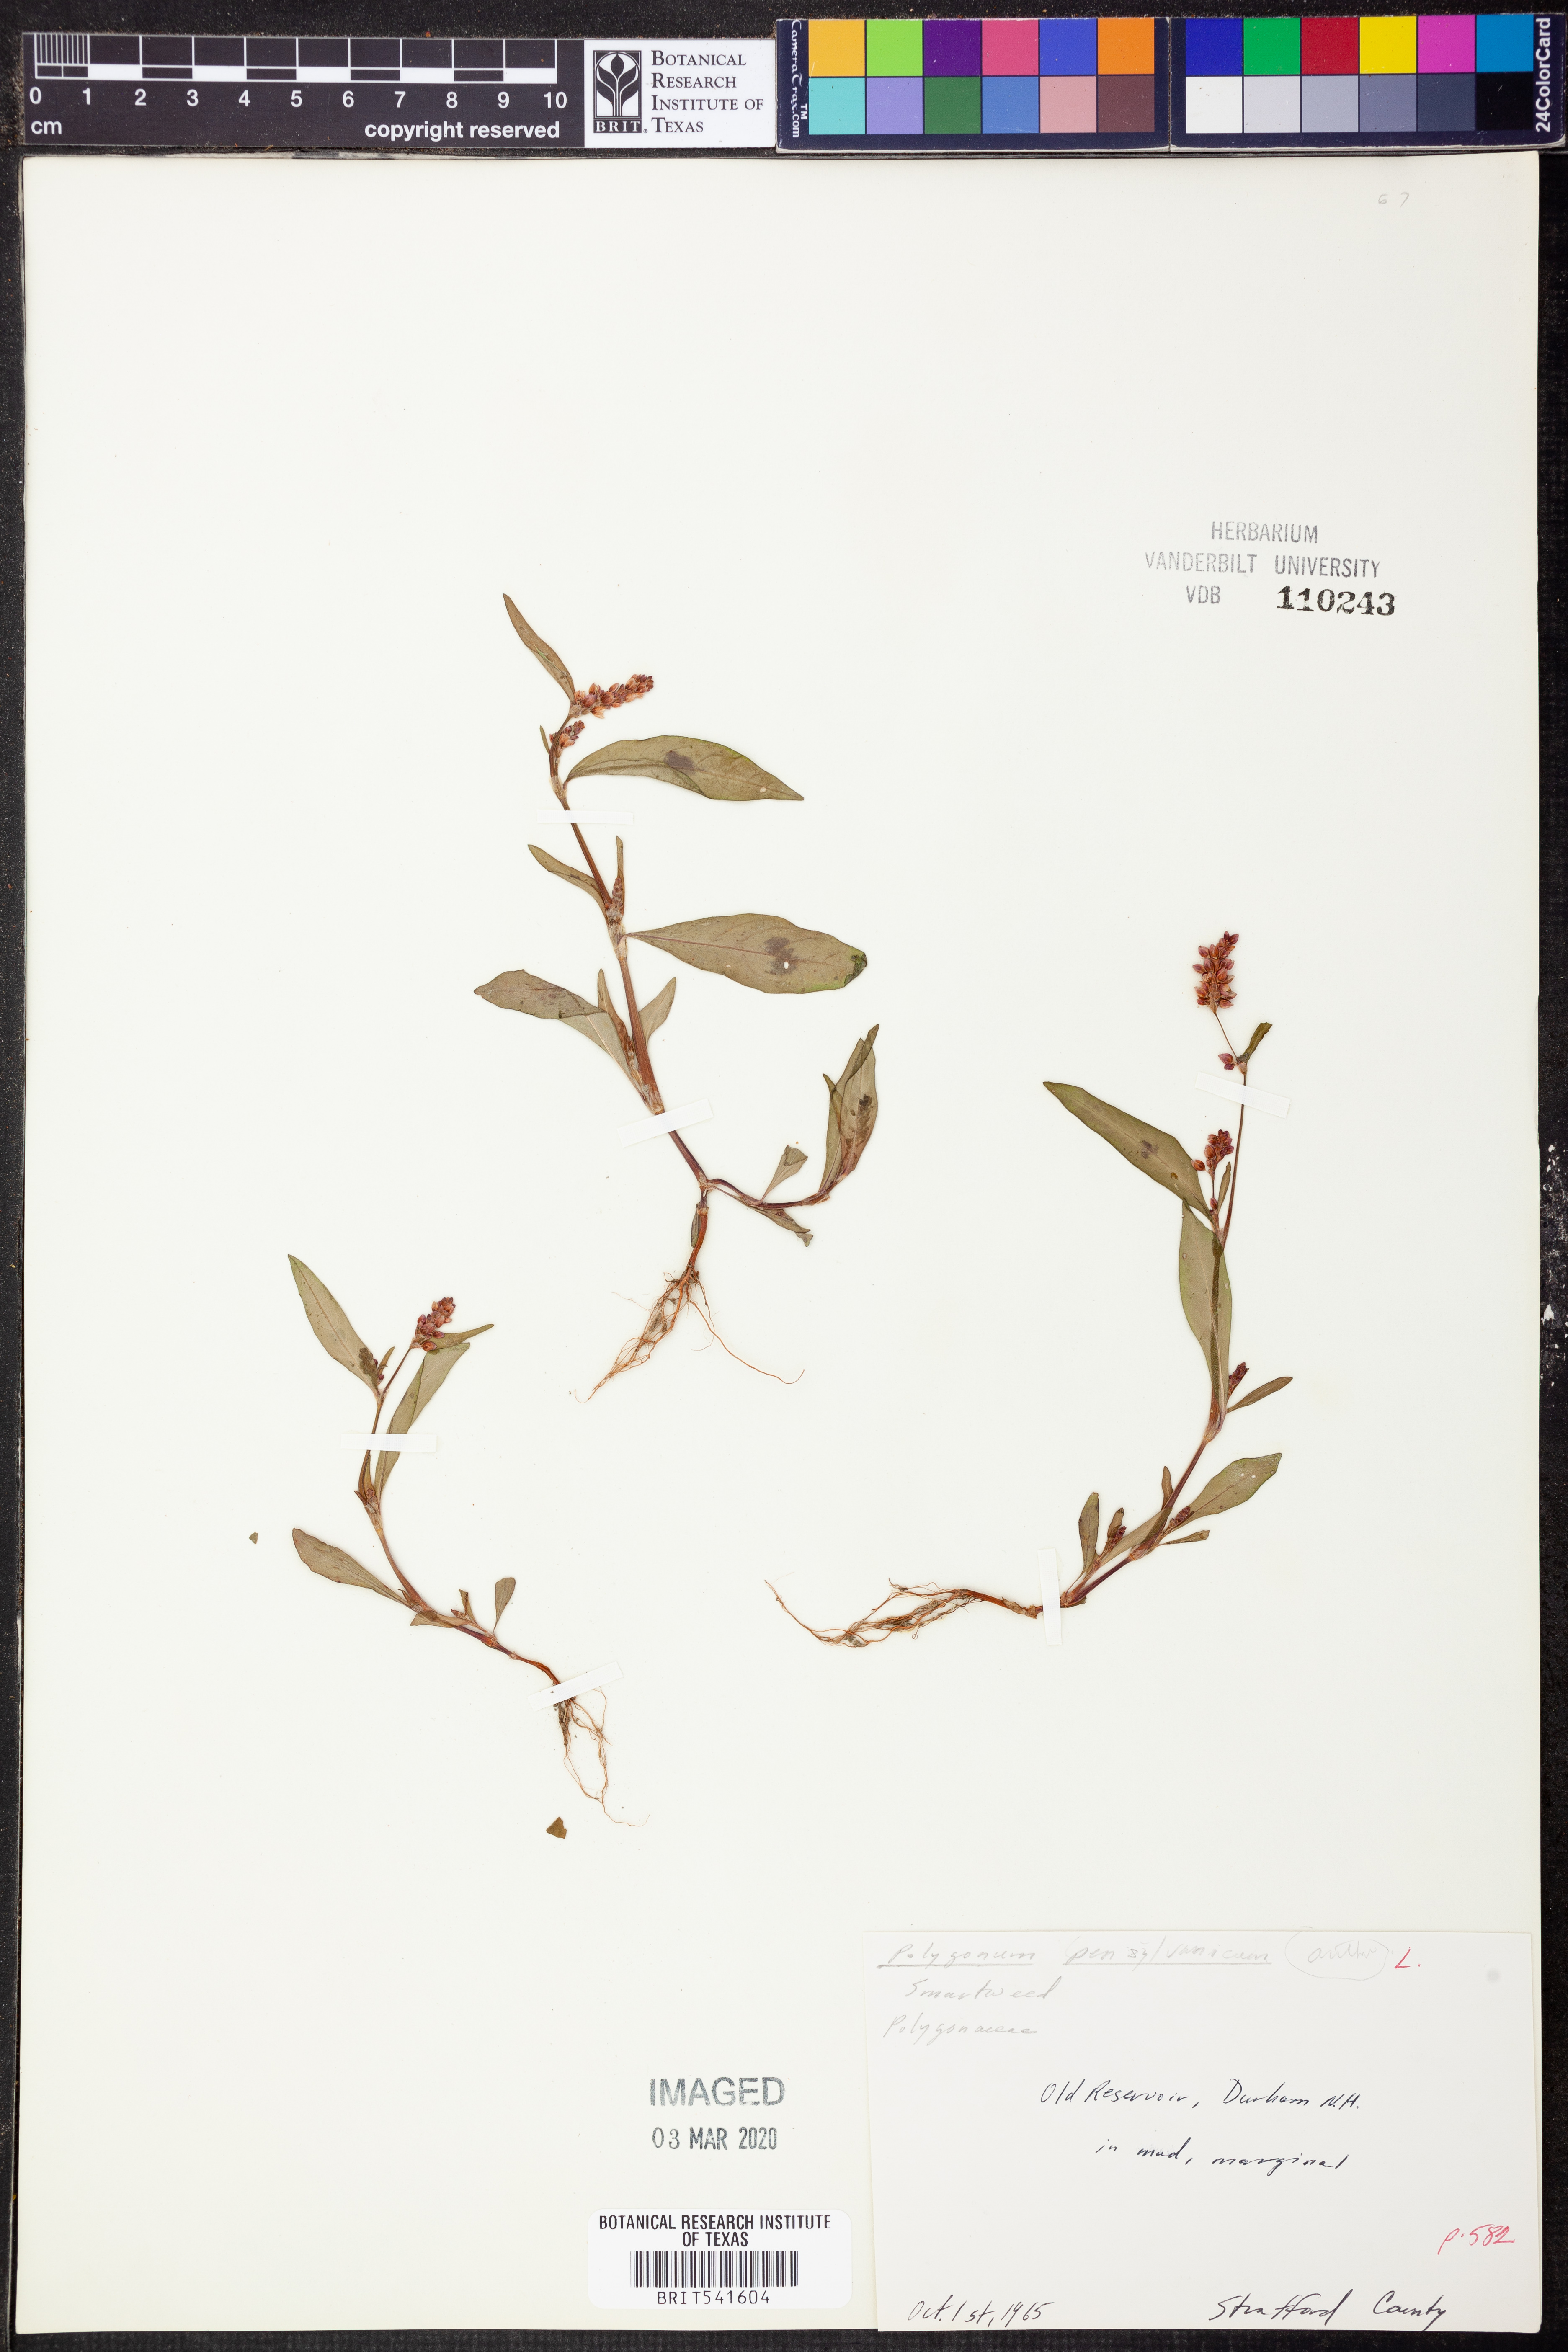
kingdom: Plantae
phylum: Tracheophyta
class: Magnoliopsida
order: Caryophyllales
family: Polygonaceae
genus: Persicaria
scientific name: Persicaria pensylvanica
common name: Pinkweed
